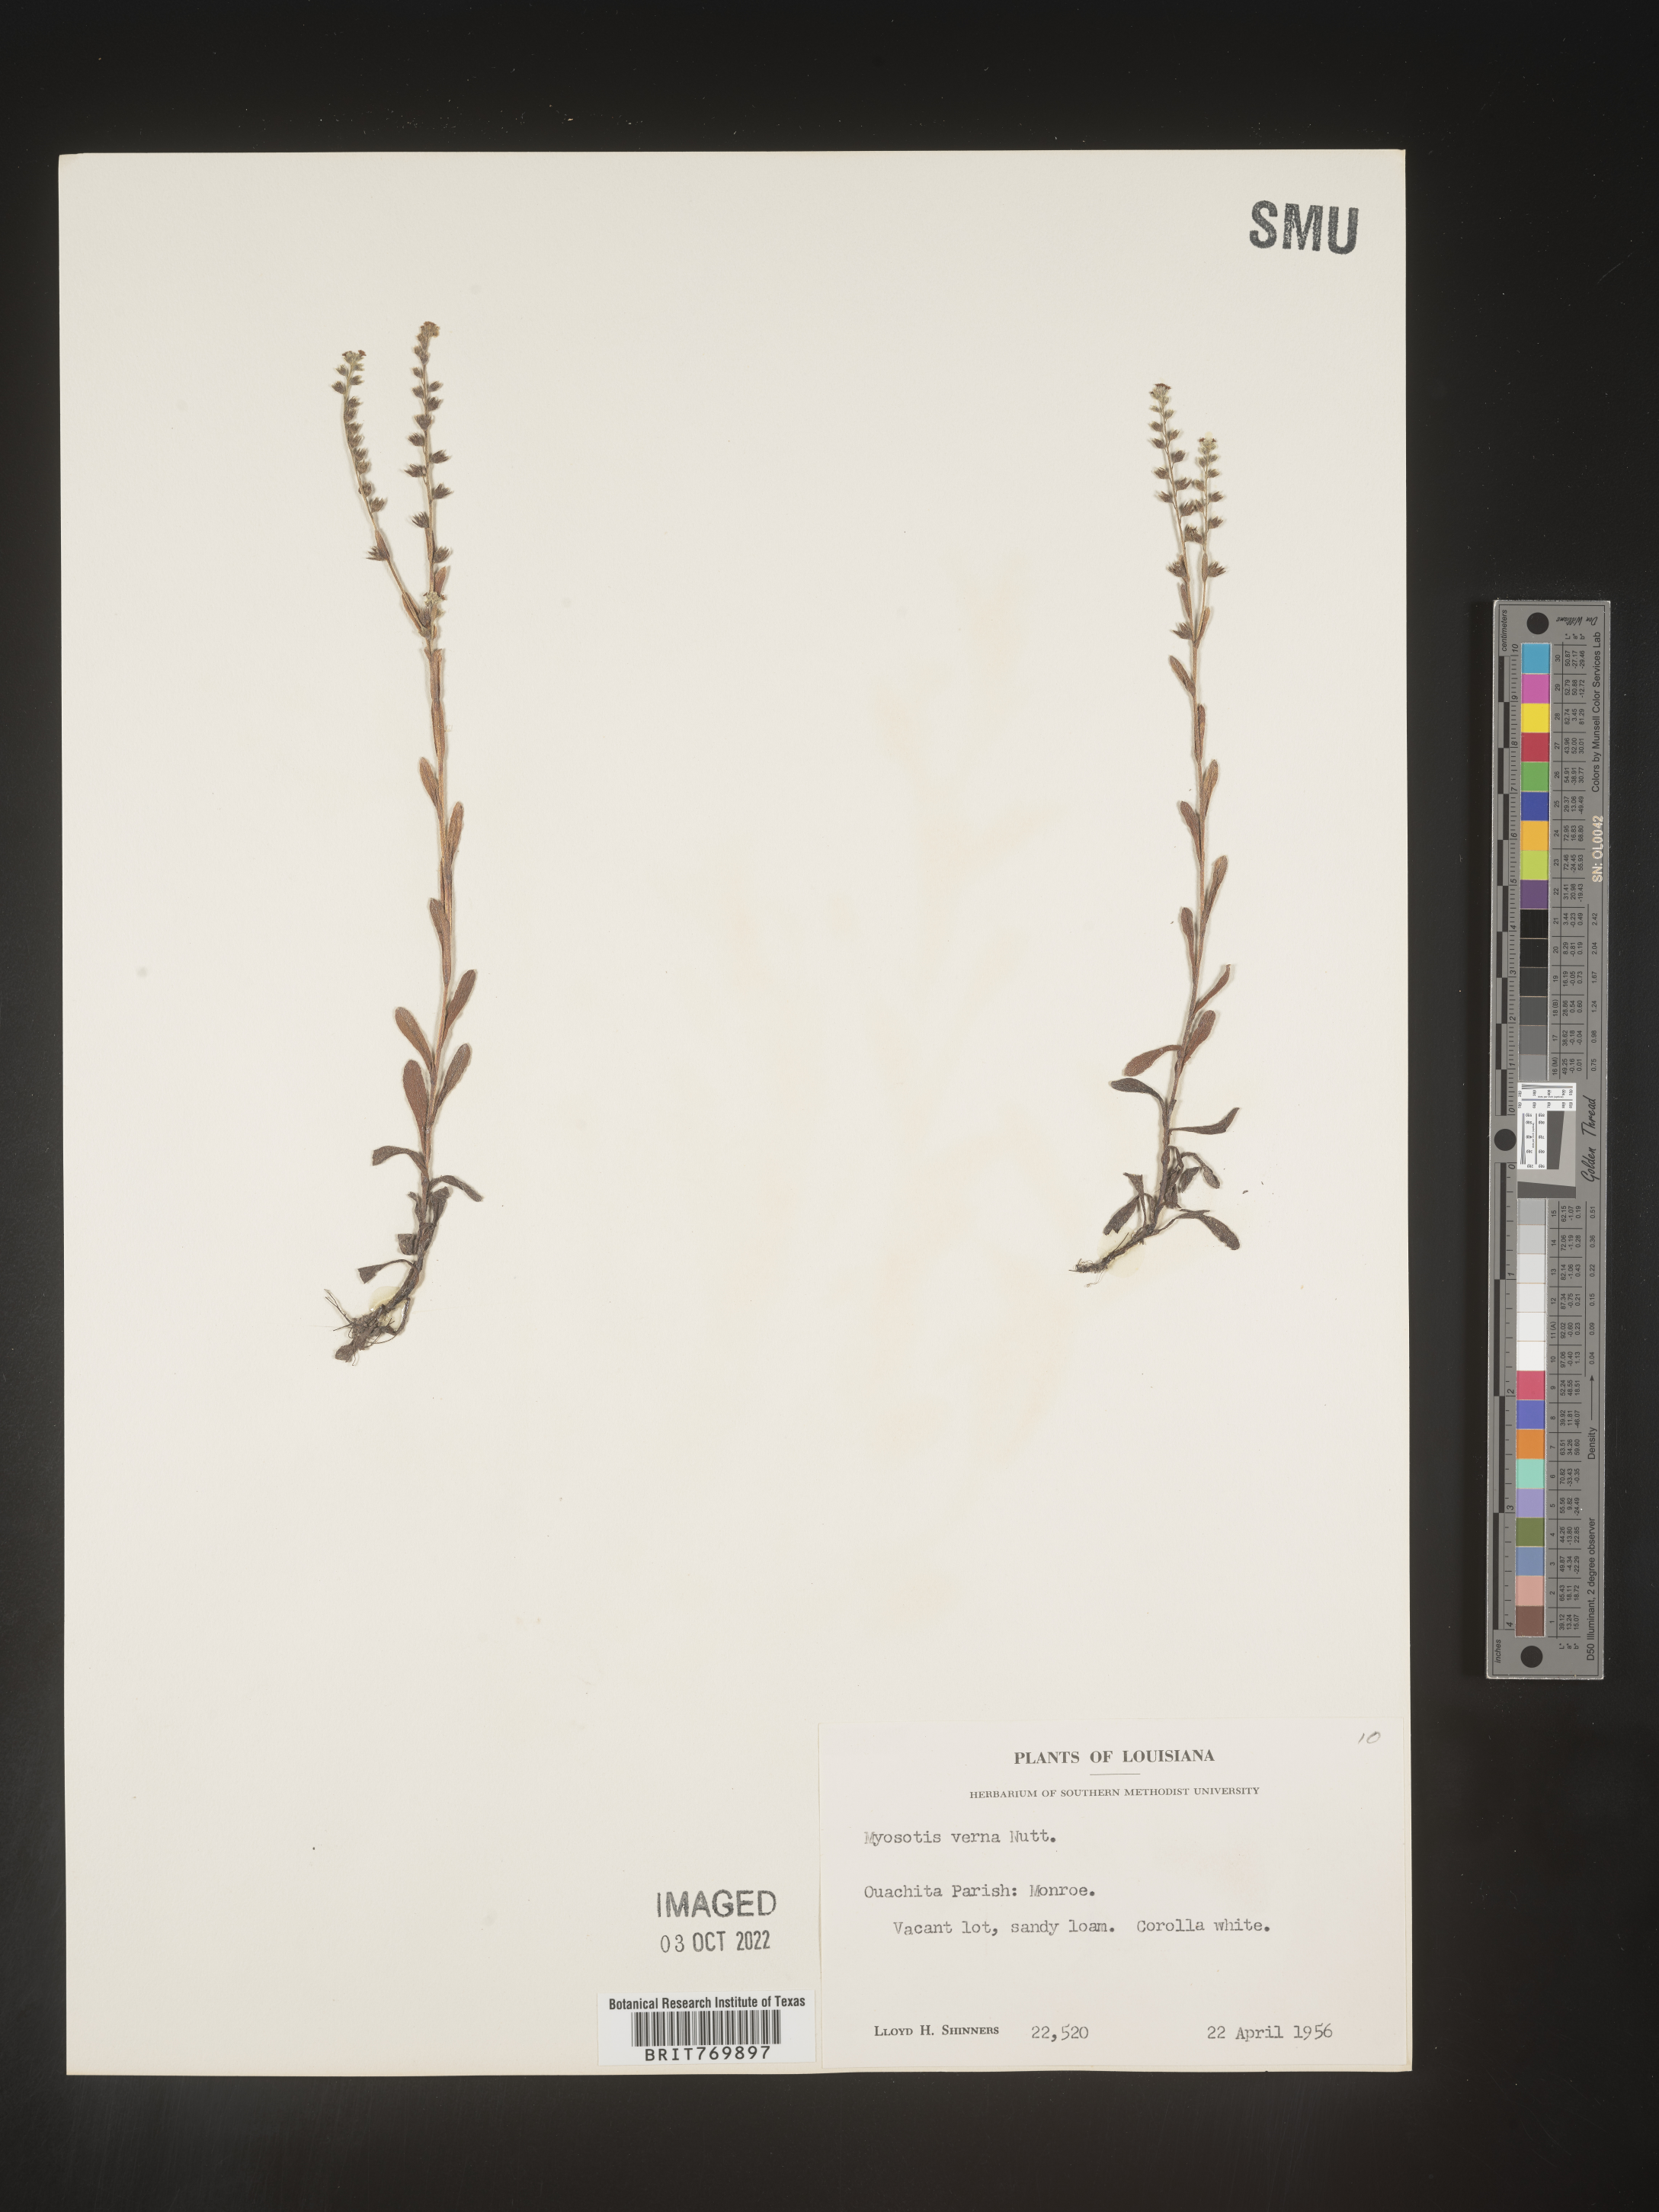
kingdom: Plantae
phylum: Tracheophyta
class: Magnoliopsida
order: Boraginales
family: Boraginaceae
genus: Myosotis
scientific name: Myosotis verna
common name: Early forget-me-not
